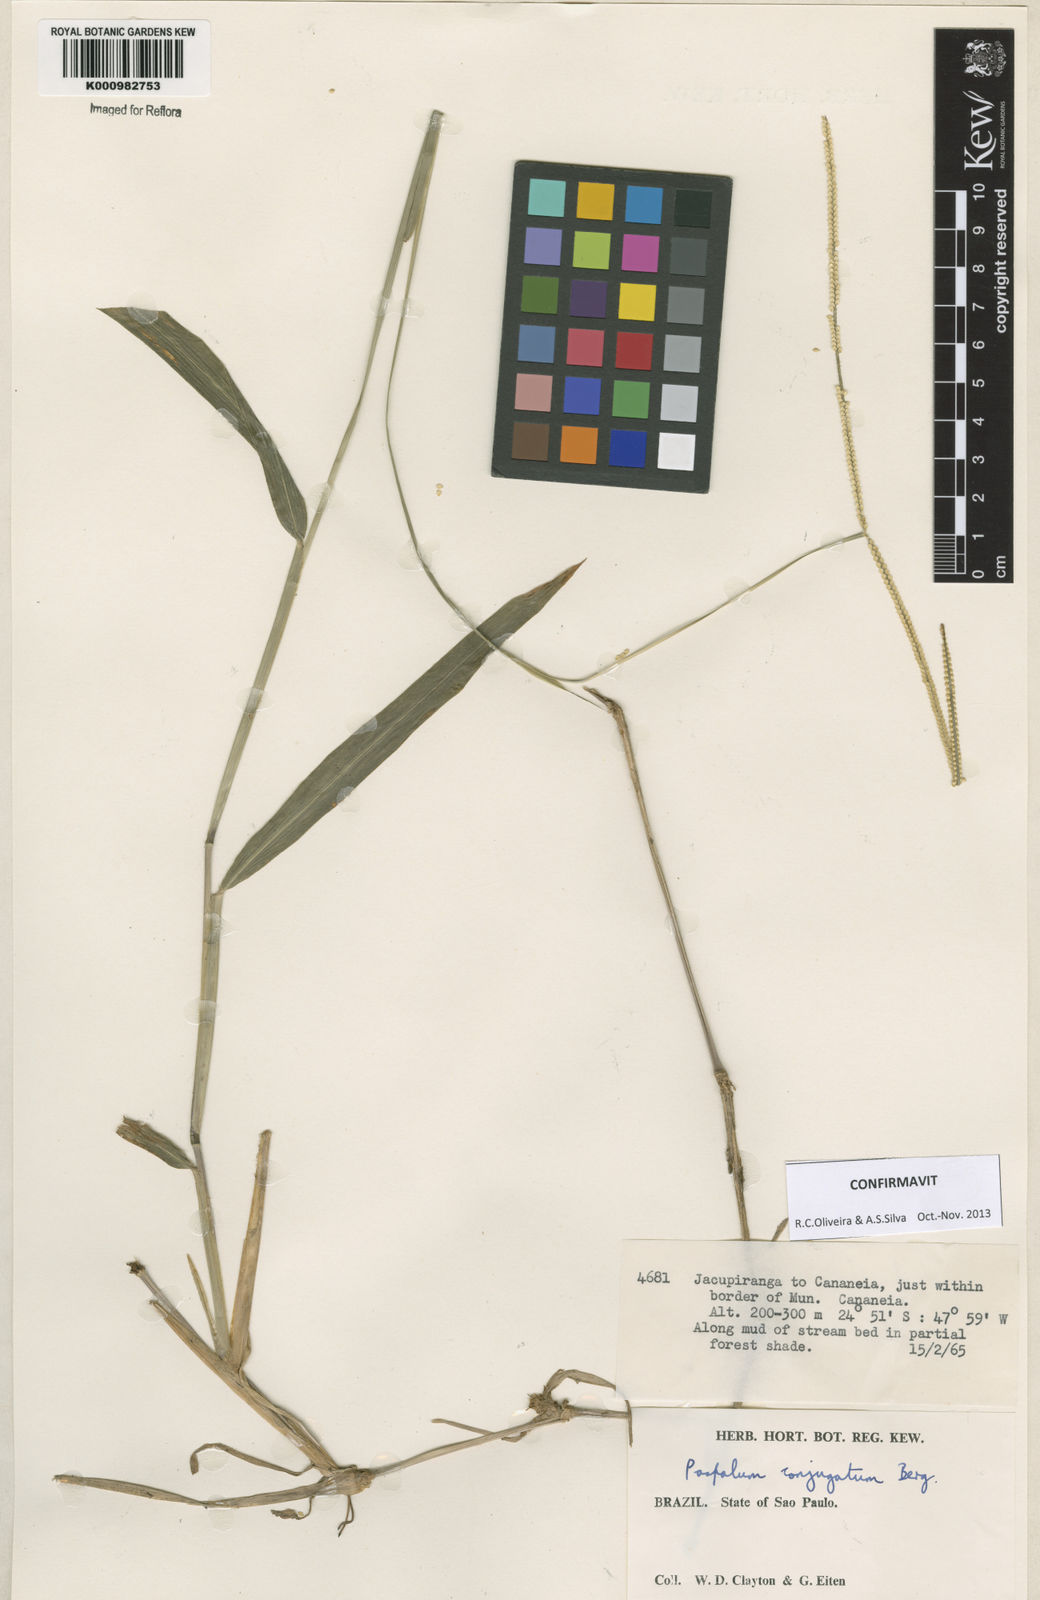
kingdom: Plantae
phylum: Tracheophyta
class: Liliopsida
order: Poales
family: Poaceae
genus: Paspalum
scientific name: Paspalum conjugatum
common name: Hilograss
